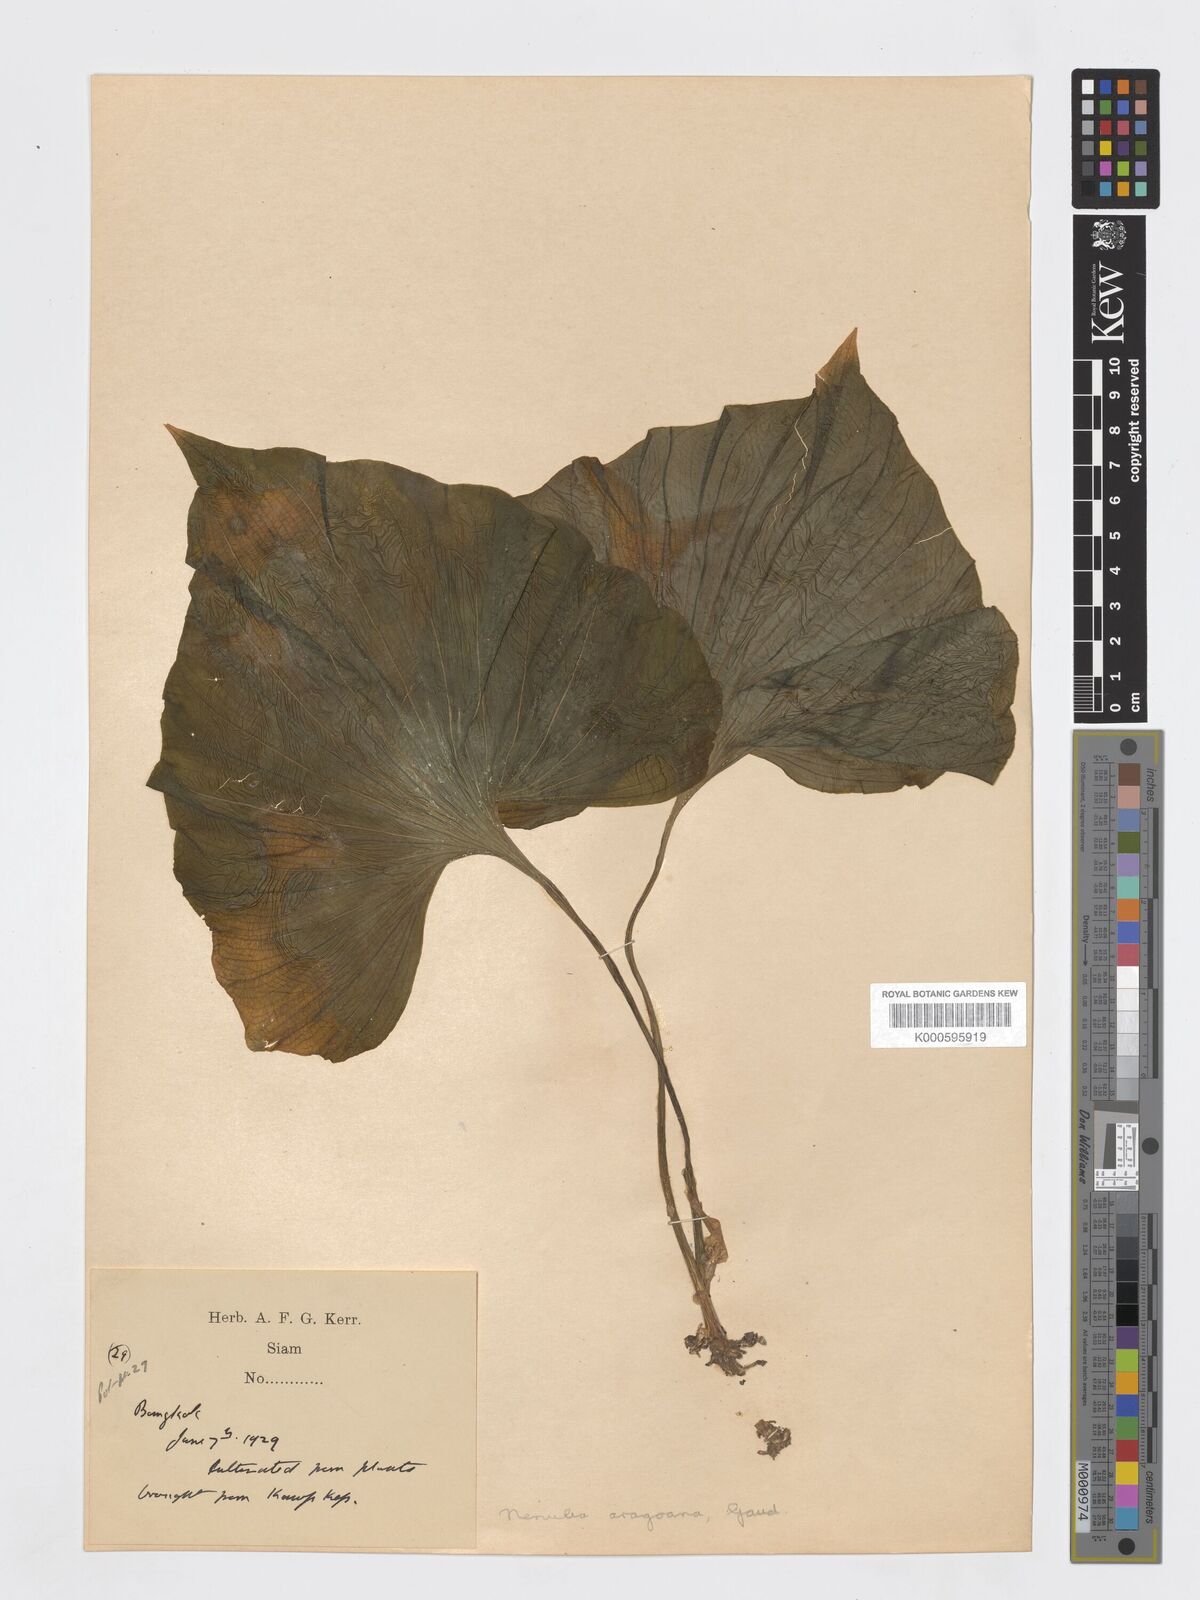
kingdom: Plantae
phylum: Tracheophyta
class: Liliopsida
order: Asparagales
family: Orchidaceae
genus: Nervilia
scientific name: Nervilia concolor
